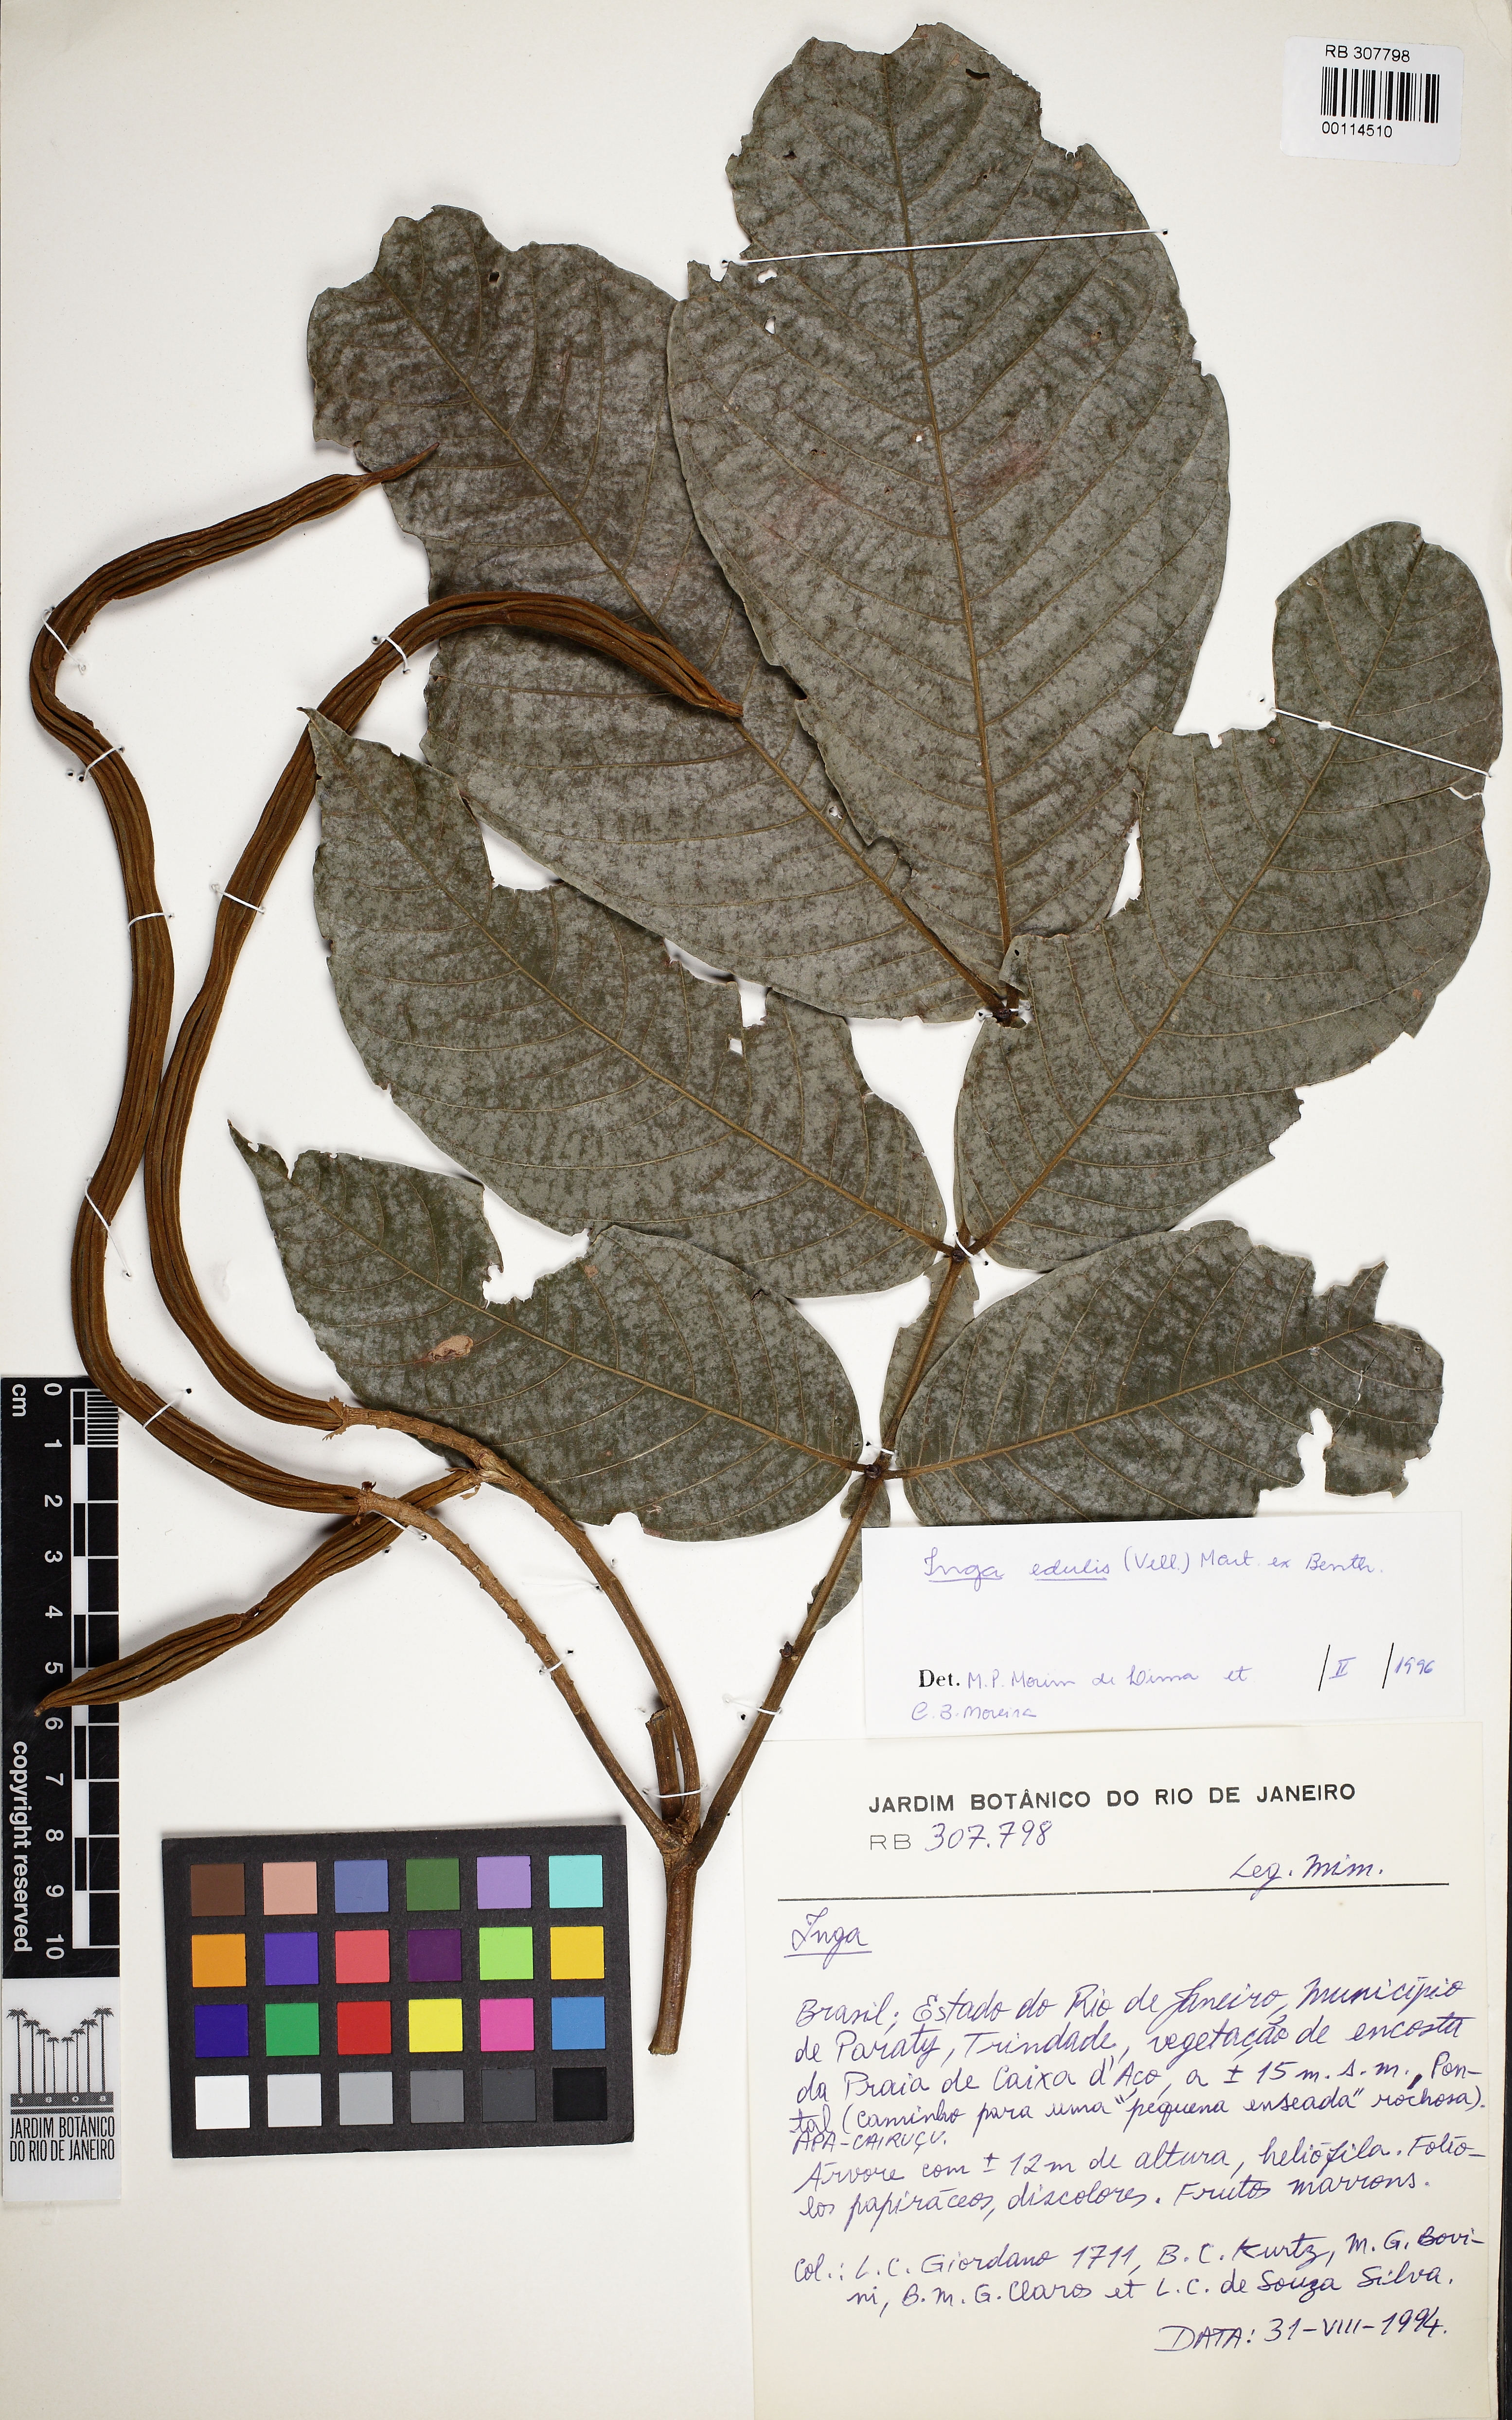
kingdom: Plantae
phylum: Tracheophyta
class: Magnoliopsida
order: Fabales
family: Fabaceae
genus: Inga
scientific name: Inga edulis
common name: Ice cream bean
